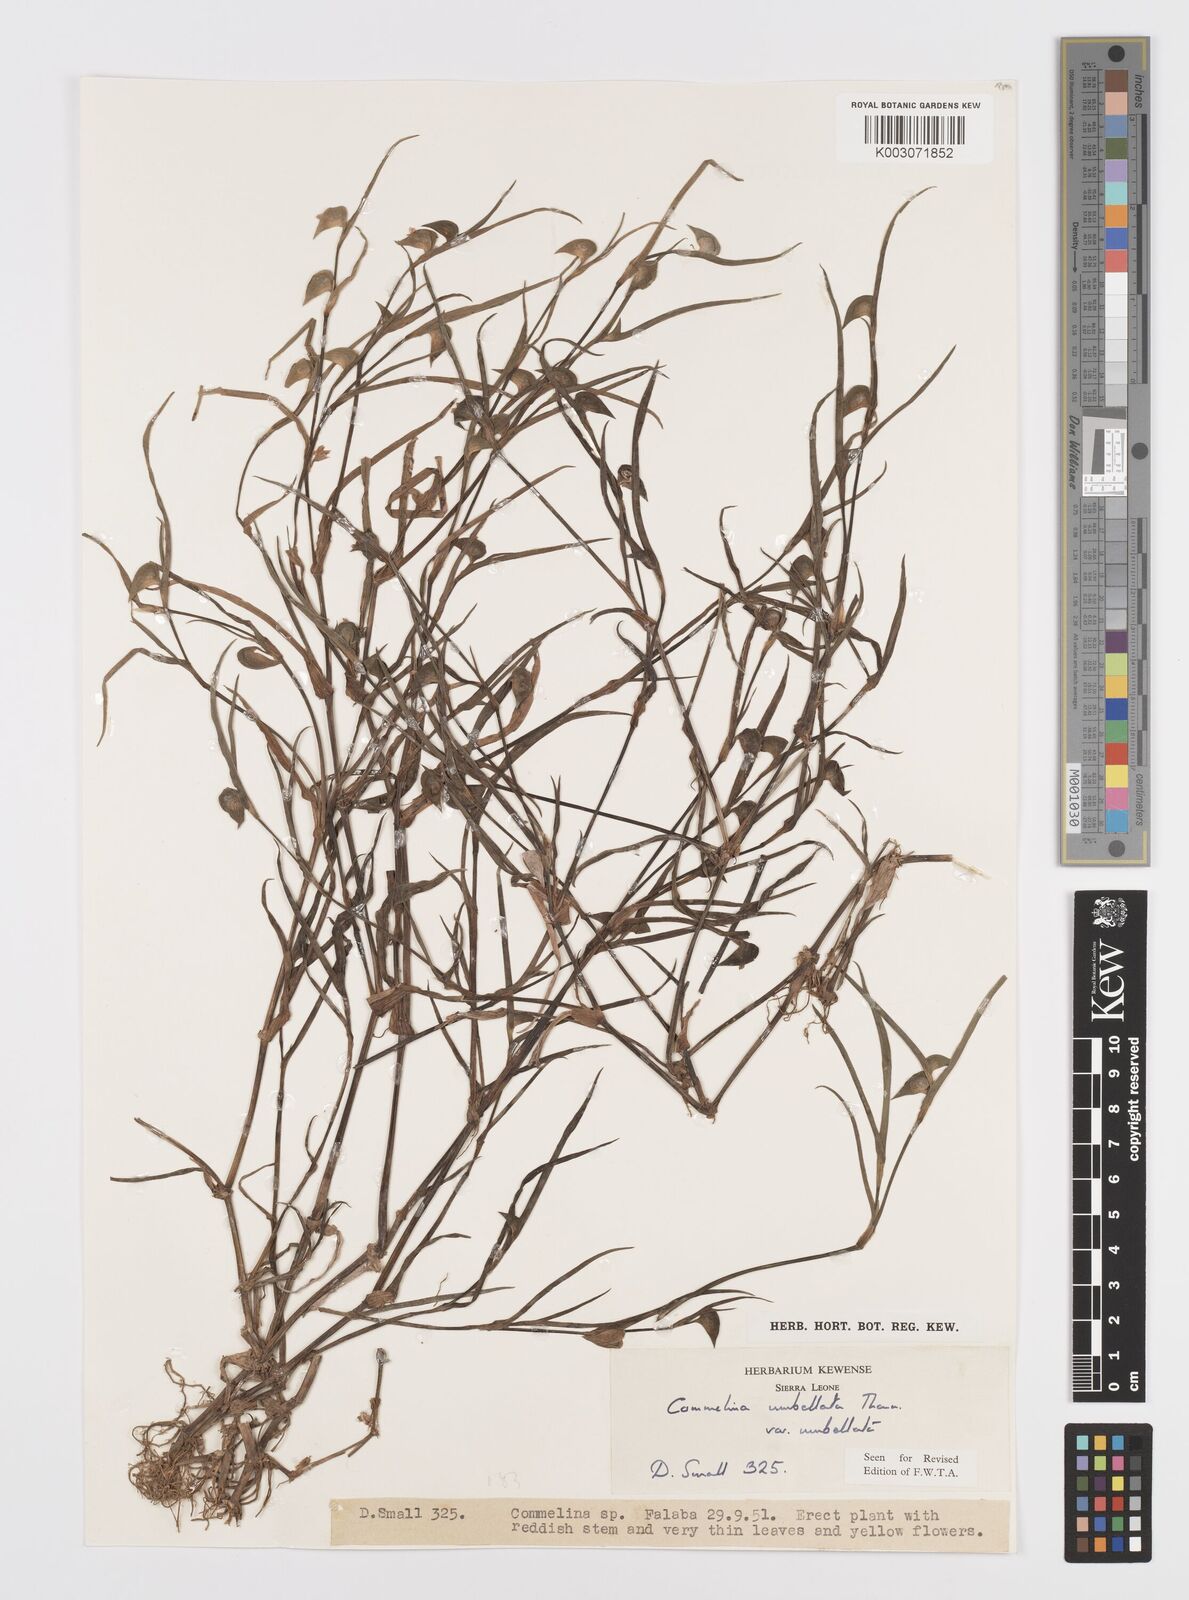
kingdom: Plantae
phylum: Tracheophyta
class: Liliopsida
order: Commelinales
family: Commelinaceae
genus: Commelina
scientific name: Commelina
